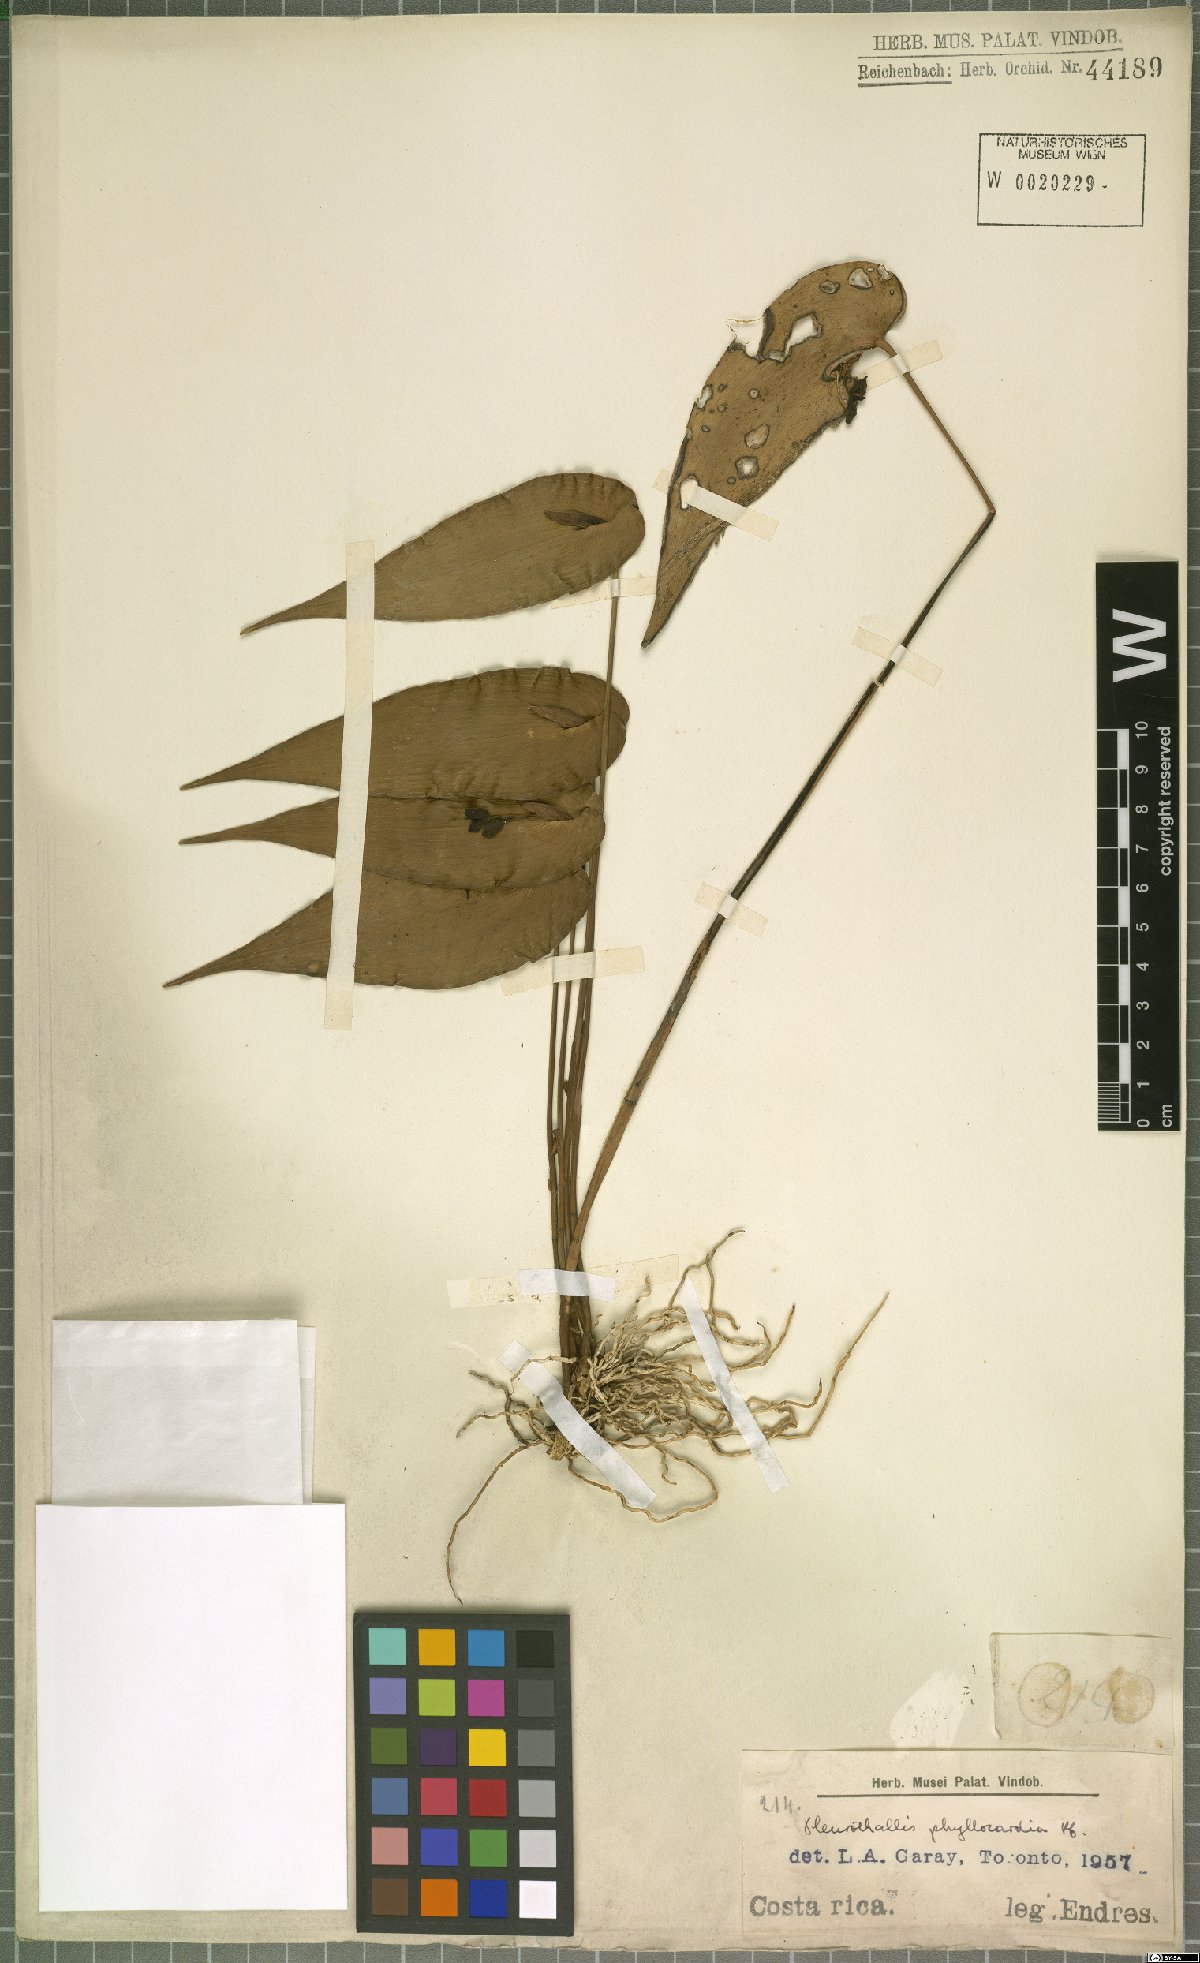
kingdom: Plantae
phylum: Tracheophyta
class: Liliopsida
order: Asparagales
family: Orchidaceae
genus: Pleurothallis
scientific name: Pleurothallis phyllocardia
